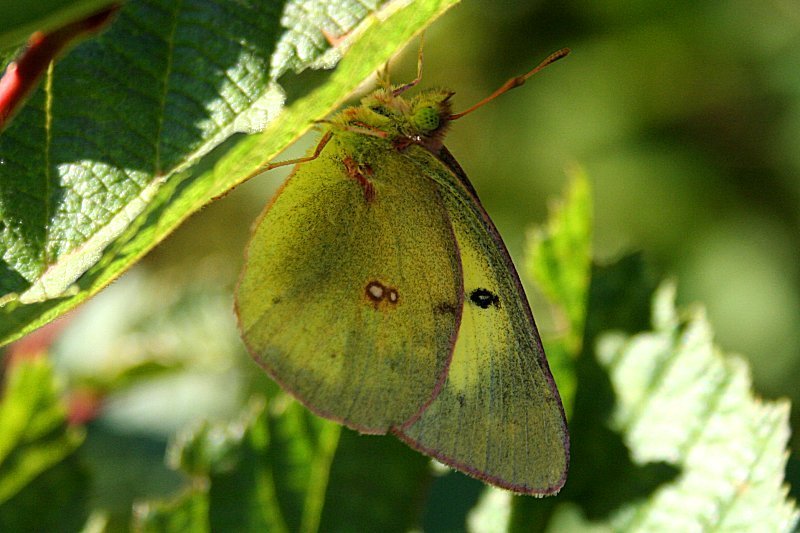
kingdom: Animalia
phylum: Arthropoda
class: Insecta
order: Lepidoptera
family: Pieridae
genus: Colias
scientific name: Colias philodice
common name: Clouded Sulphur
